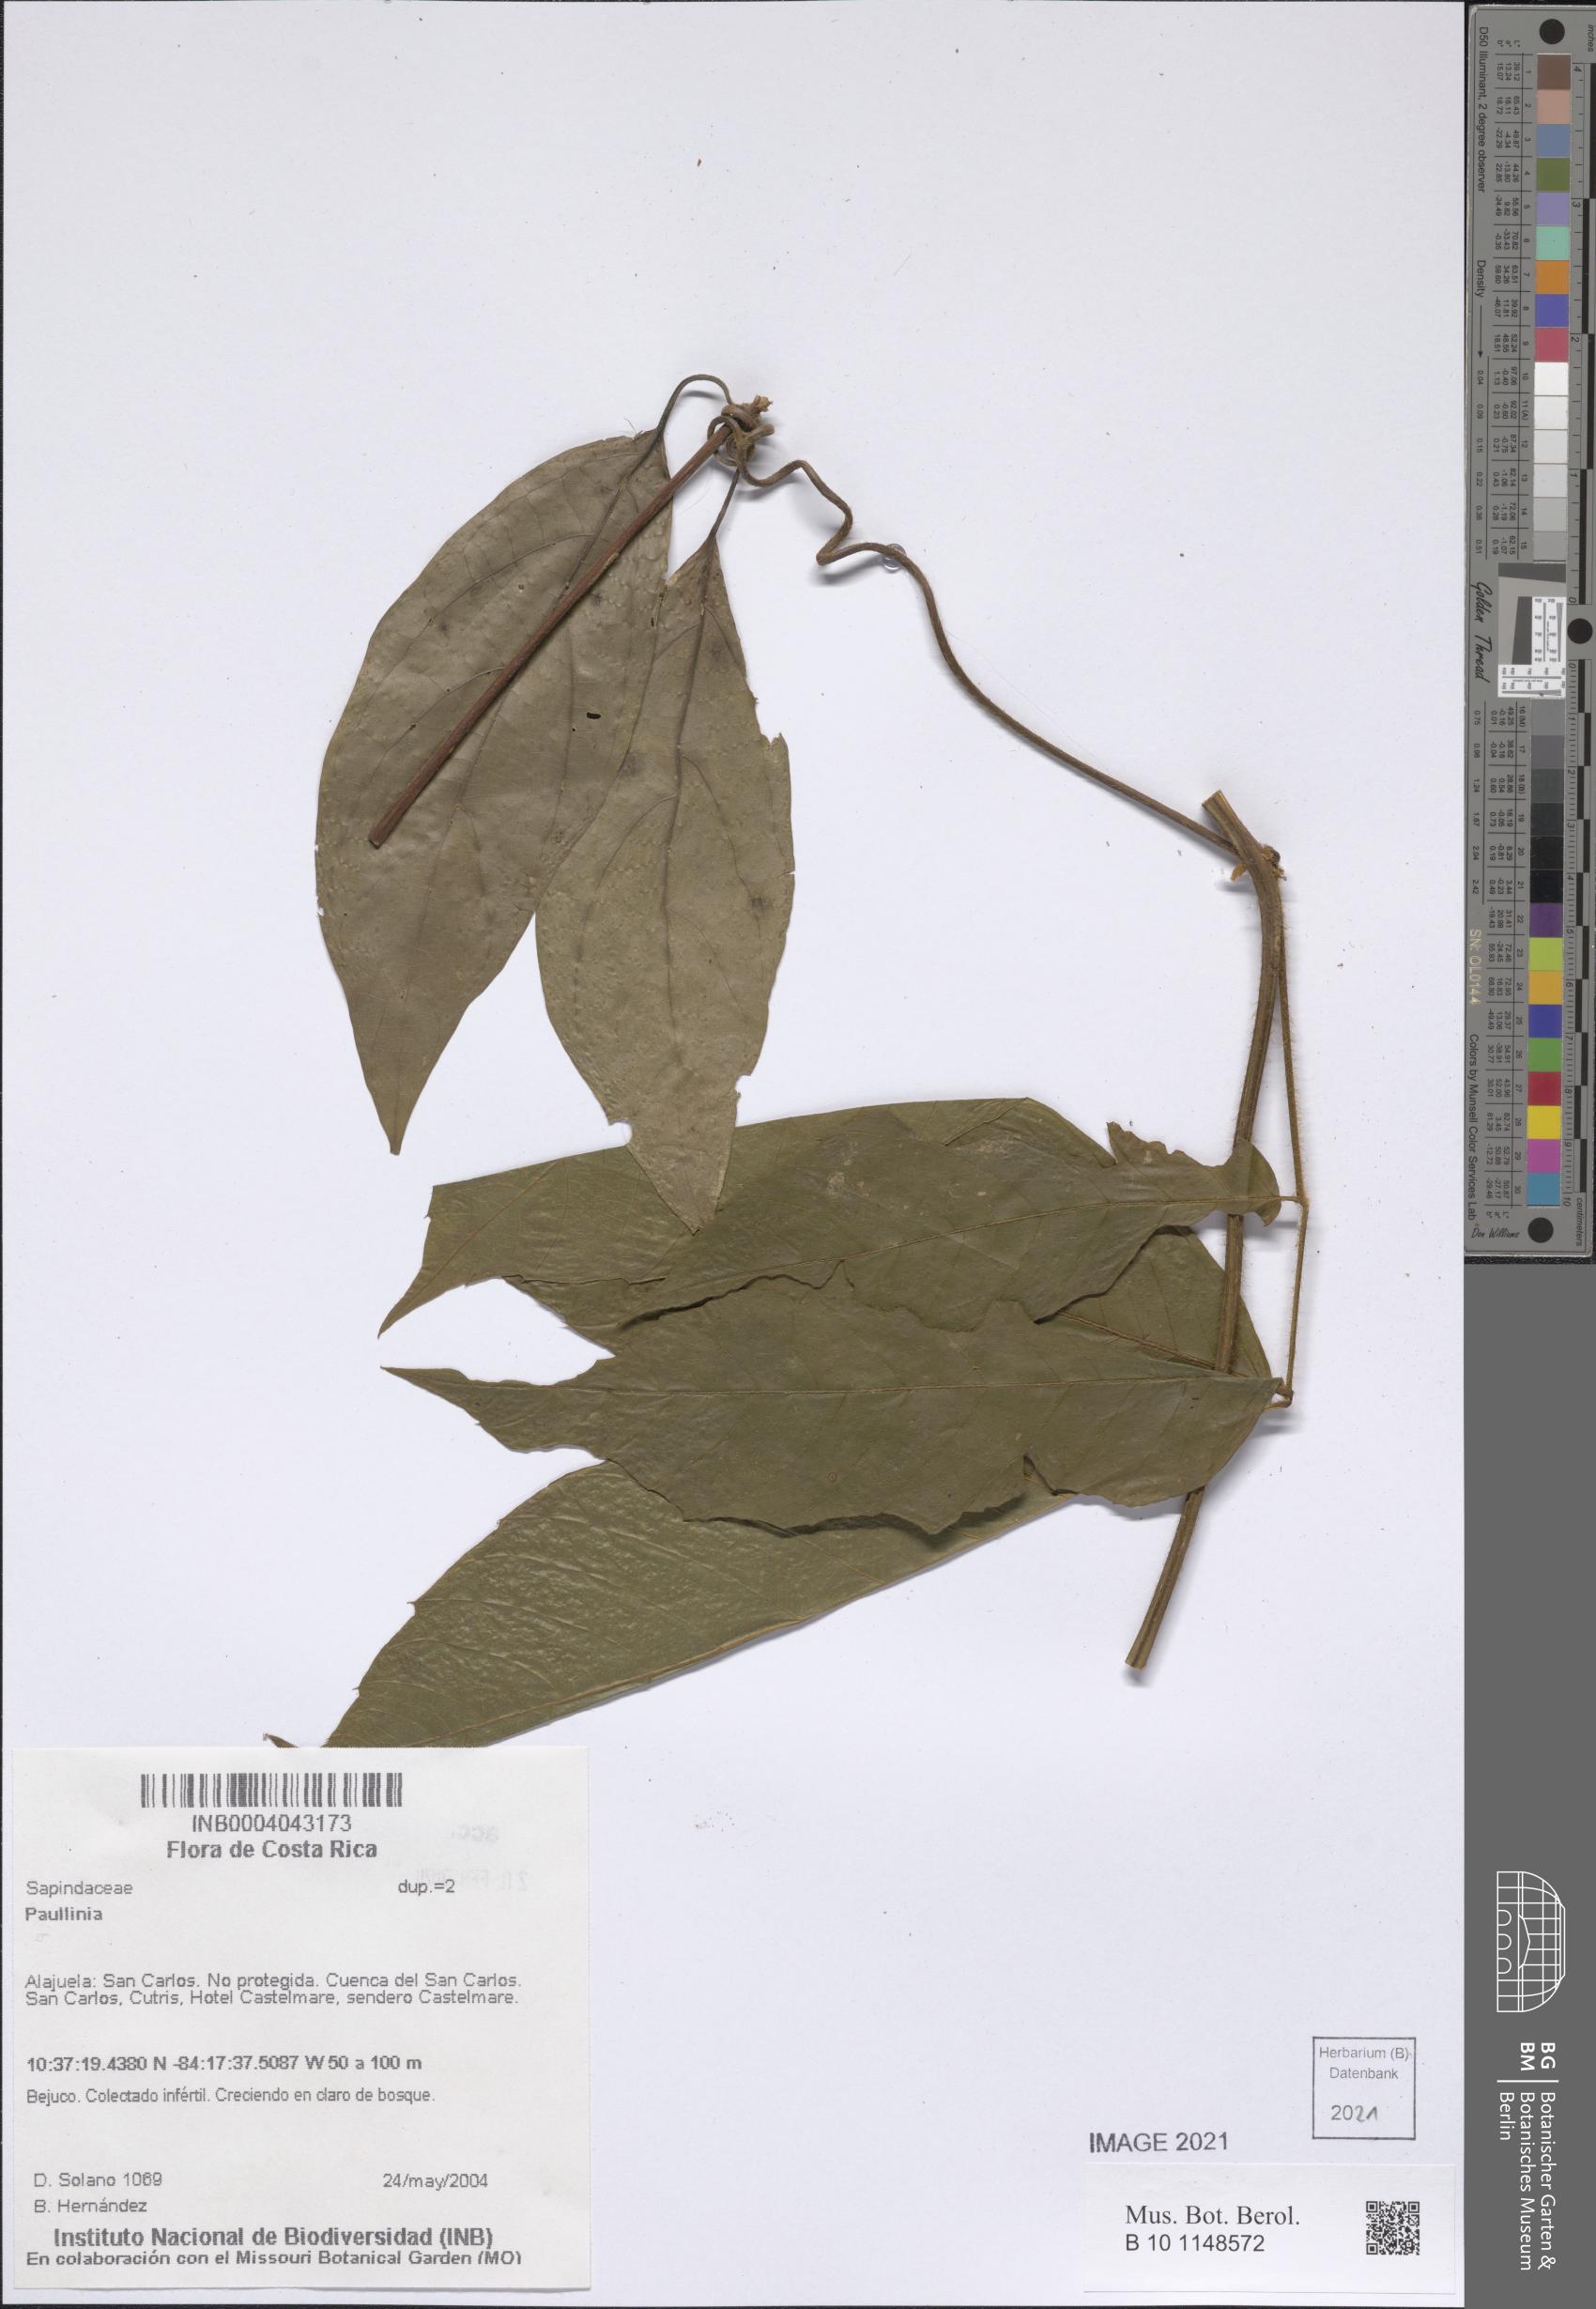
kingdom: Plantae
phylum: Tracheophyta
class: Magnoliopsida
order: Sapindales
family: Sapindaceae
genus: Paullinia
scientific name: Paullinia
